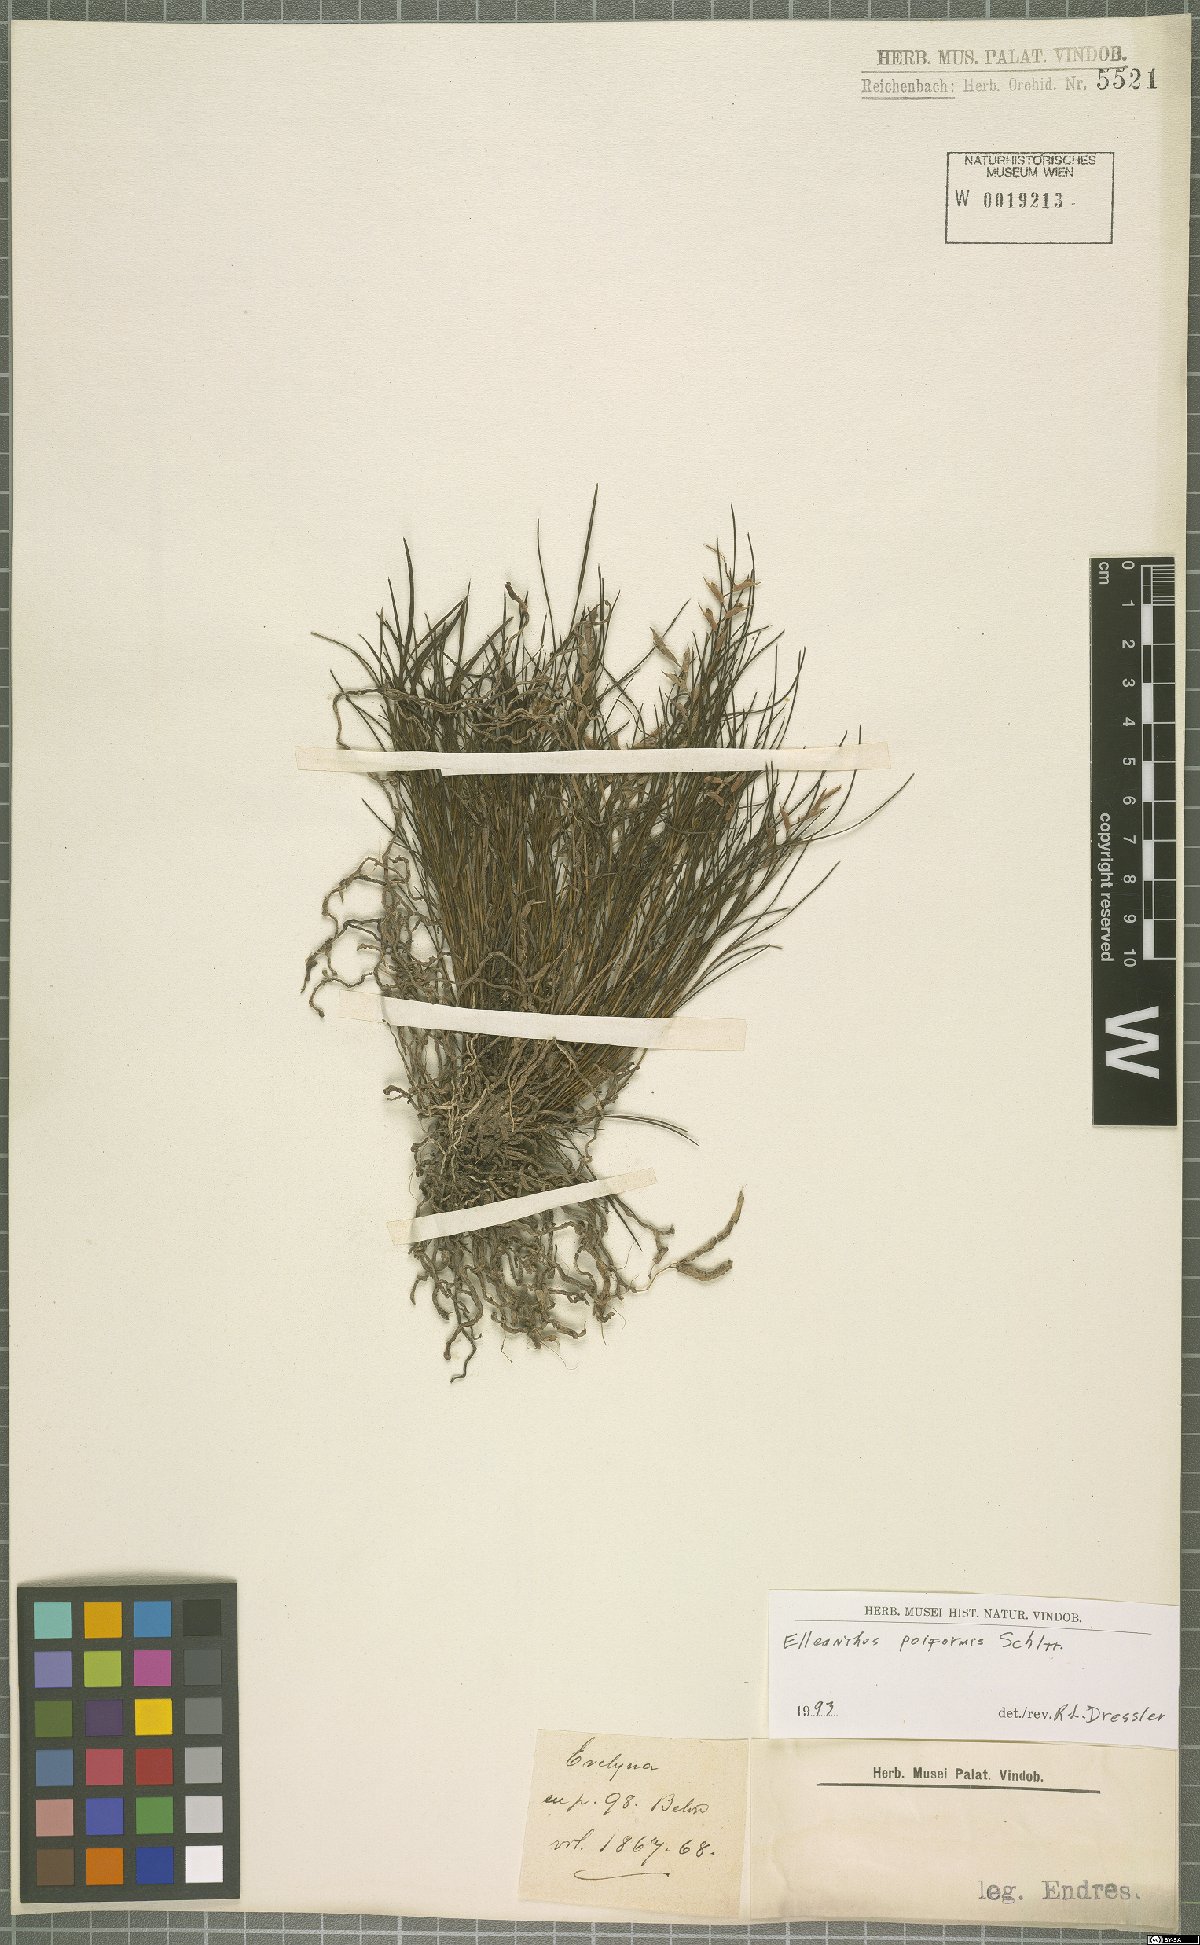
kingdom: Plantae
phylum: Tracheophyta
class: Liliopsida
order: Asparagales
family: Orchidaceae
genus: Elleanthus
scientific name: Elleanthus poiformis
